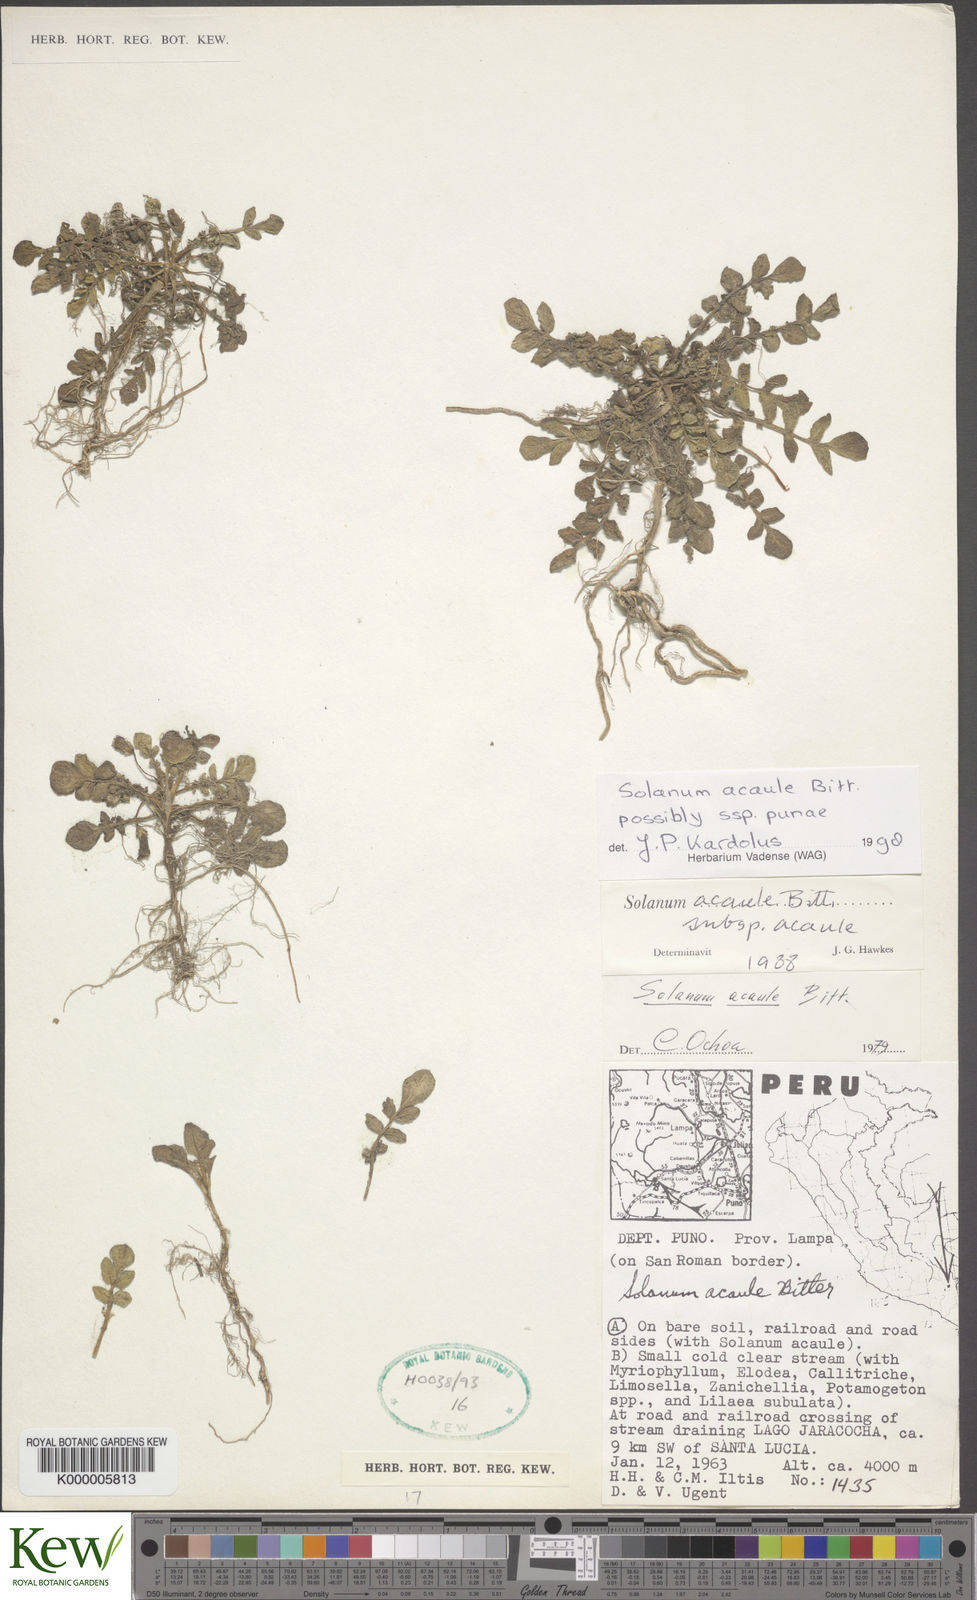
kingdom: Plantae
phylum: Tracheophyta
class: Magnoliopsida
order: Solanales
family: Solanaceae
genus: Solanum
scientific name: Solanum acaule
